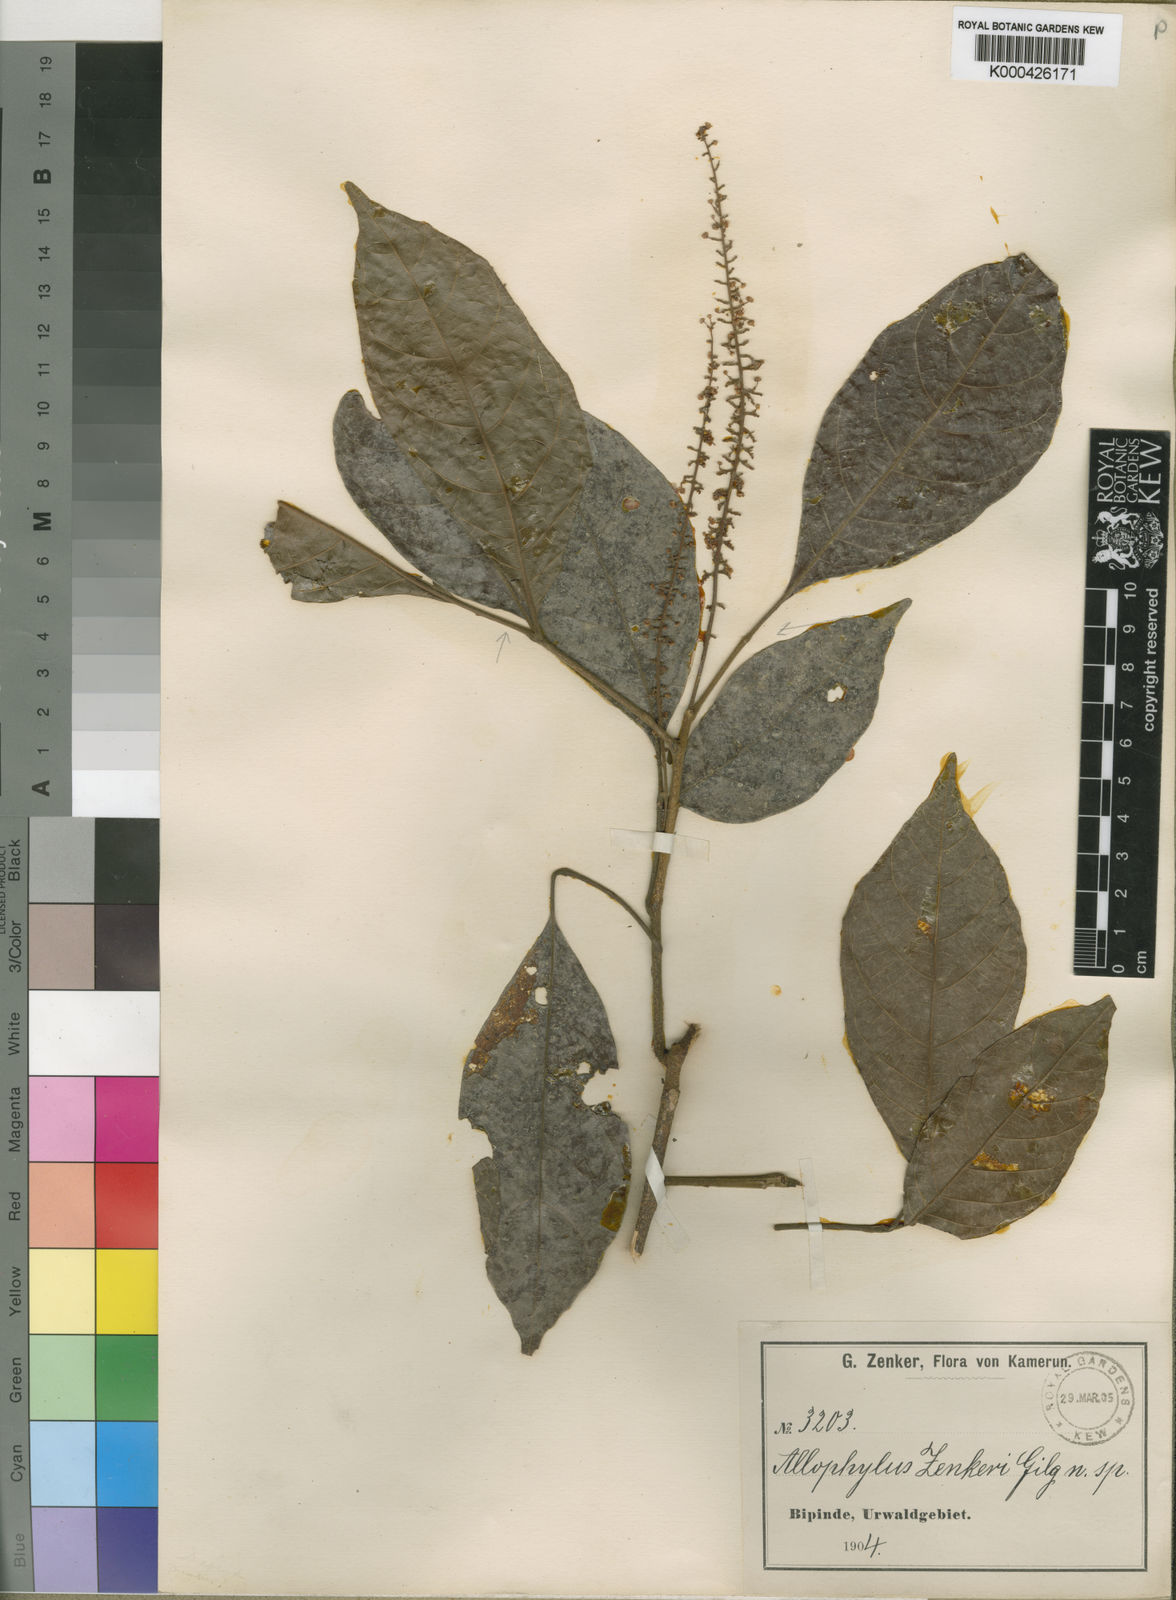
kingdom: Plantae
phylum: Tracheophyta
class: Magnoliopsida
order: Sapindales
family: Sapindaceae
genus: Allophylus
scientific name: Allophylus zenkeri
